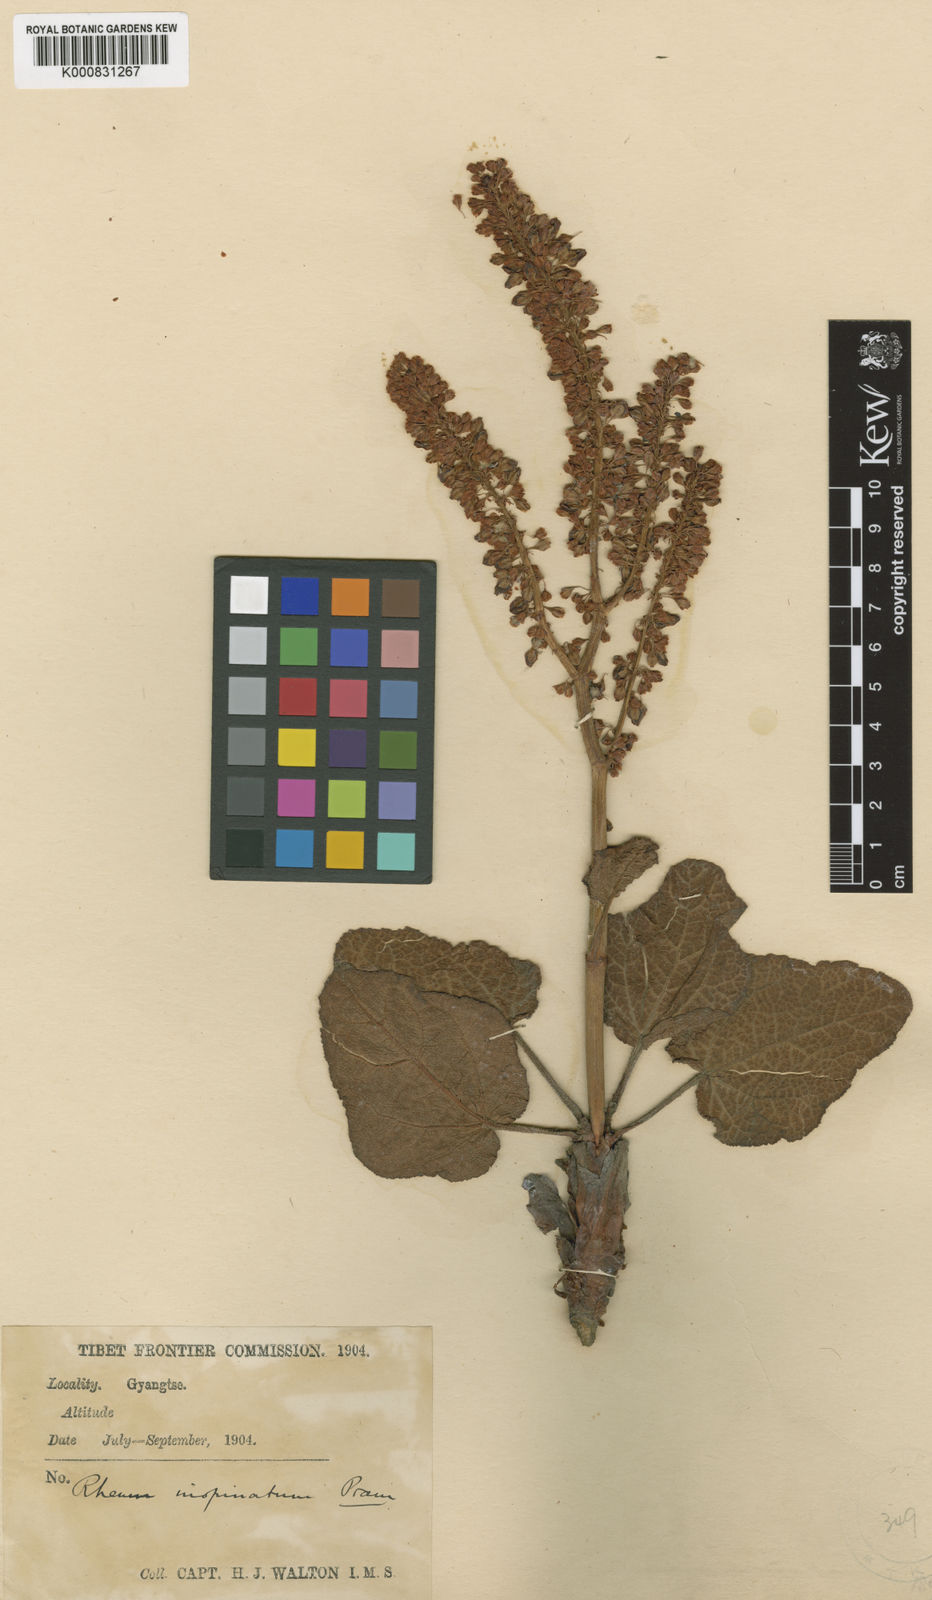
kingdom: Plantae
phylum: Tracheophyta
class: Magnoliopsida
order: Caryophyllales
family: Polygonaceae
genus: Rheum
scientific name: Rheum inopinatum
